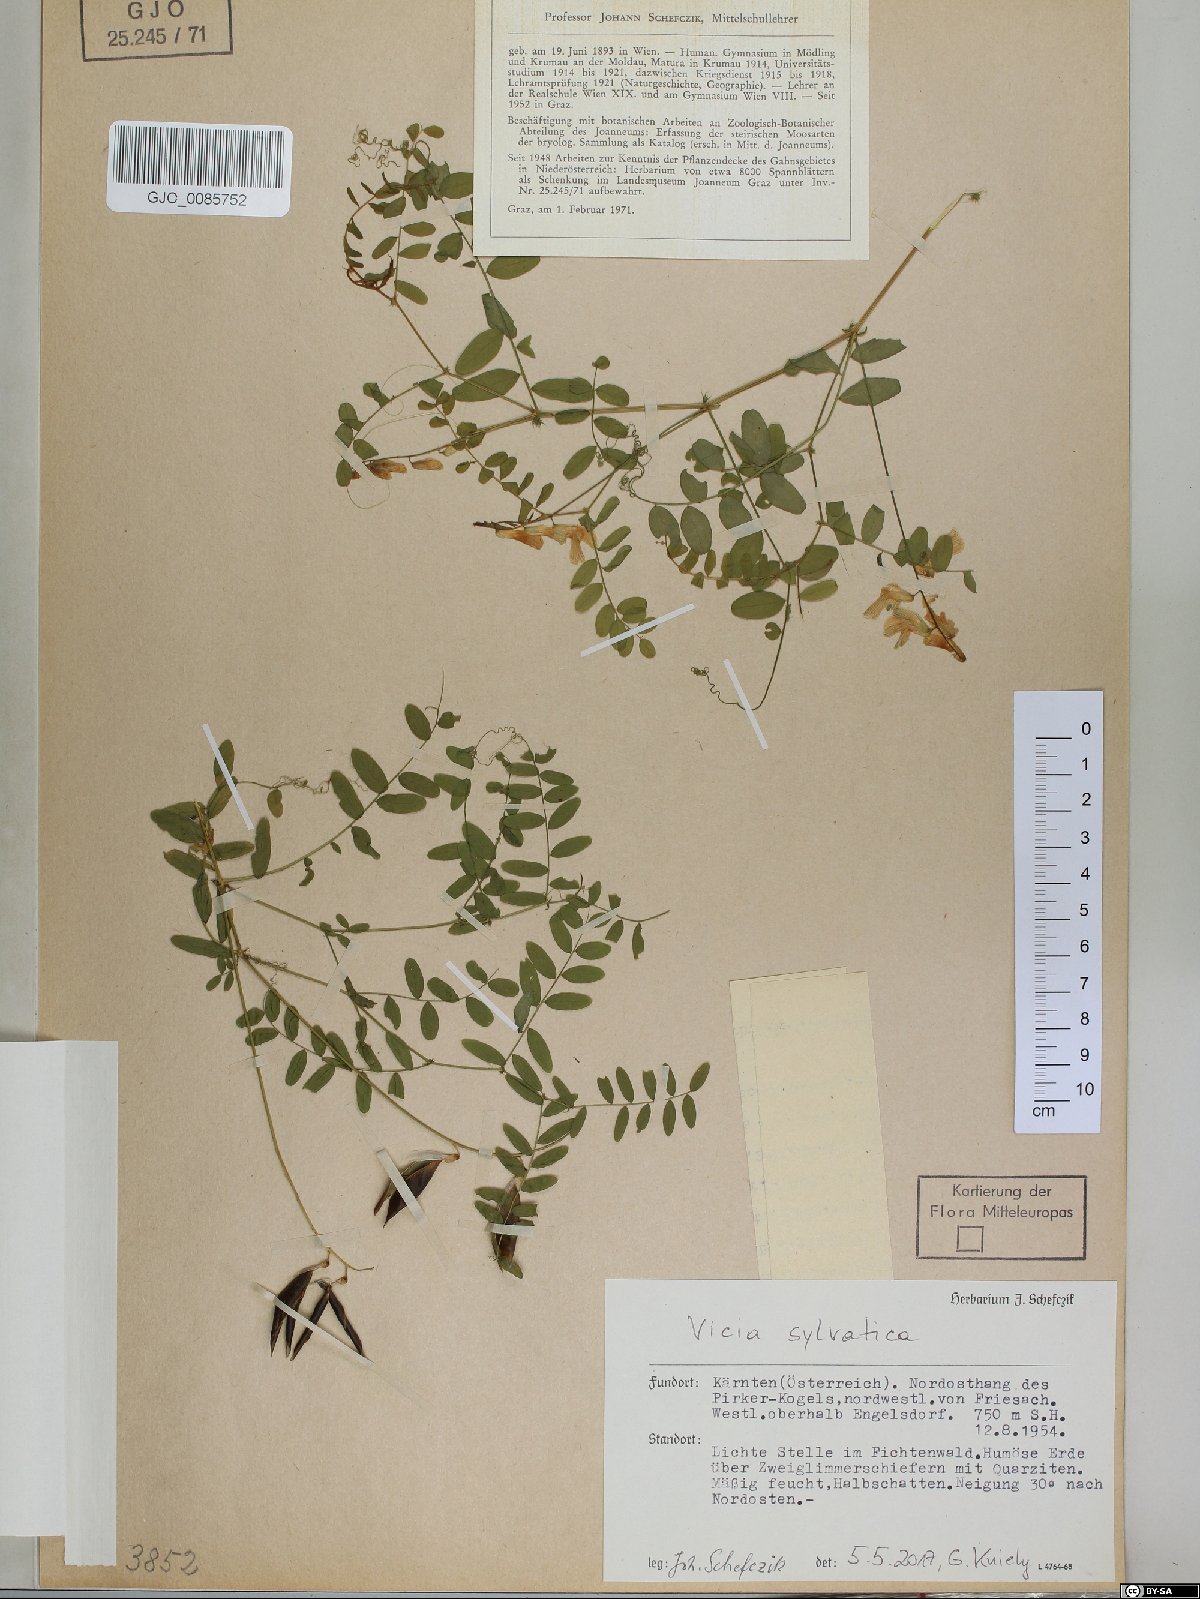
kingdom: Plantae
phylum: Tracheophyta
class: Magnoliopsida
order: Fabales
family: Fabaceae
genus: Vicia
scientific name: Vicia sylvatica
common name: Wood vetch
